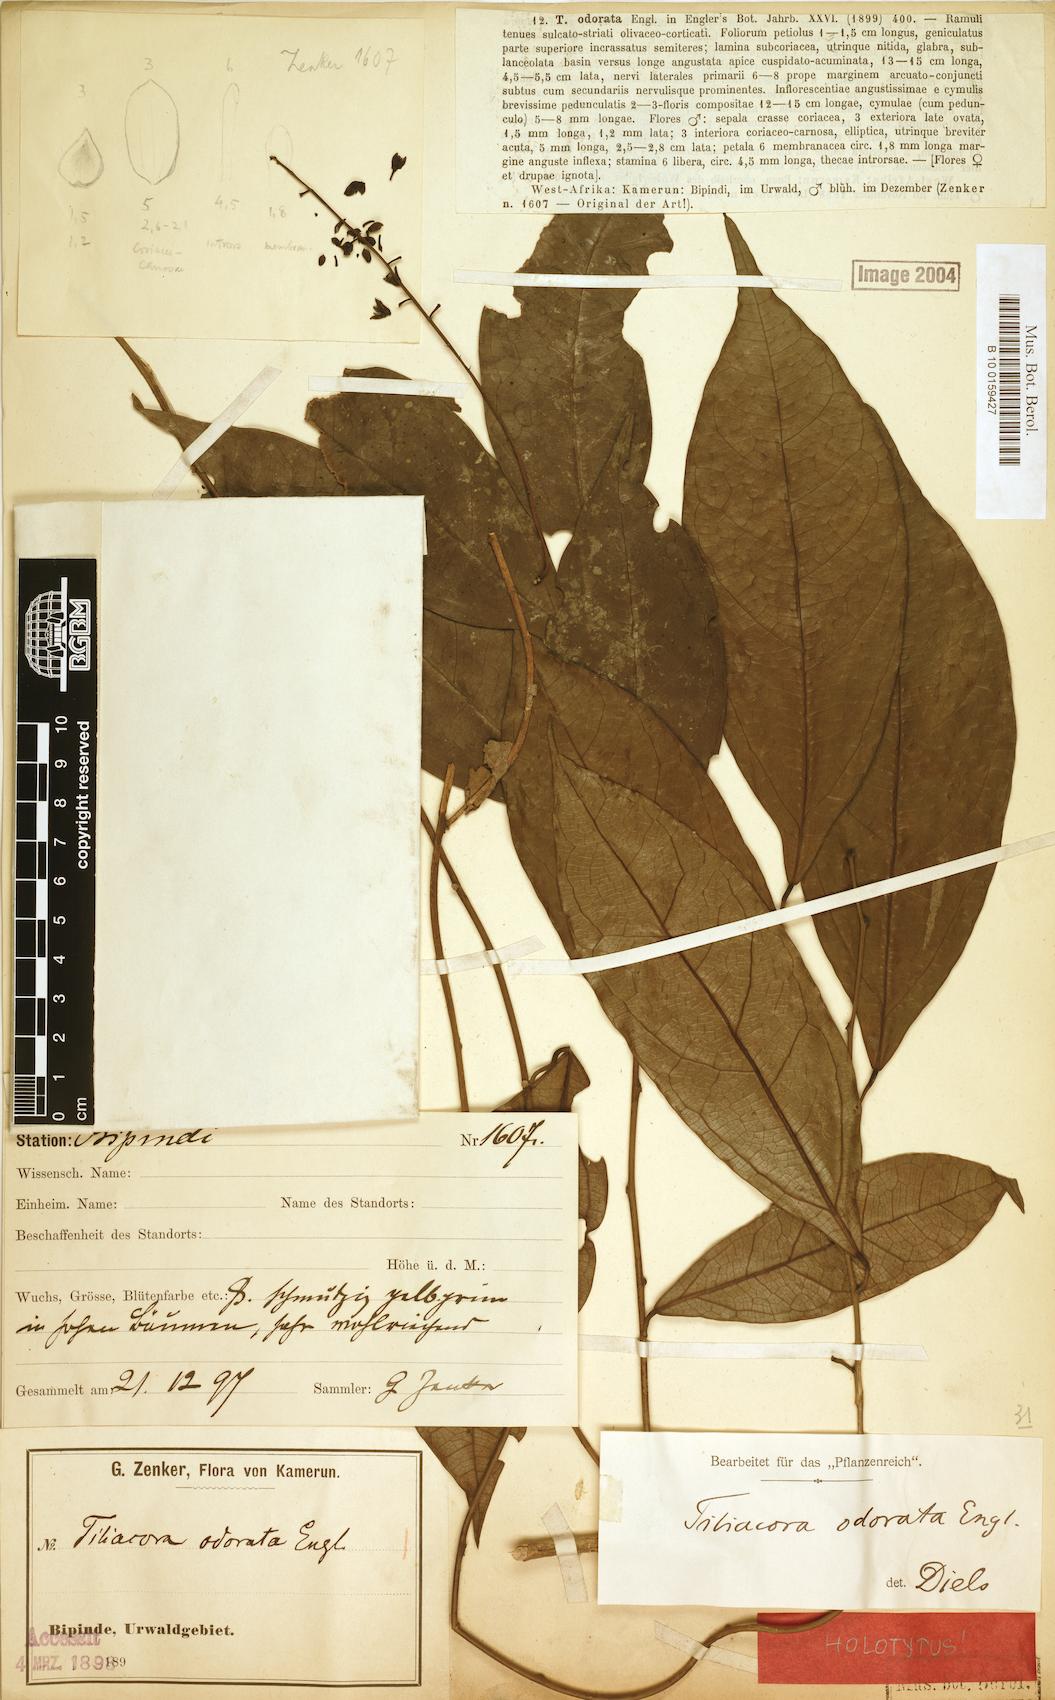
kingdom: Plantae
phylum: Tracheophyta
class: Magnoliopsida
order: Ranunculales
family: Menispermaceae
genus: Tiliacora
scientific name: Tiliacora klaineana
